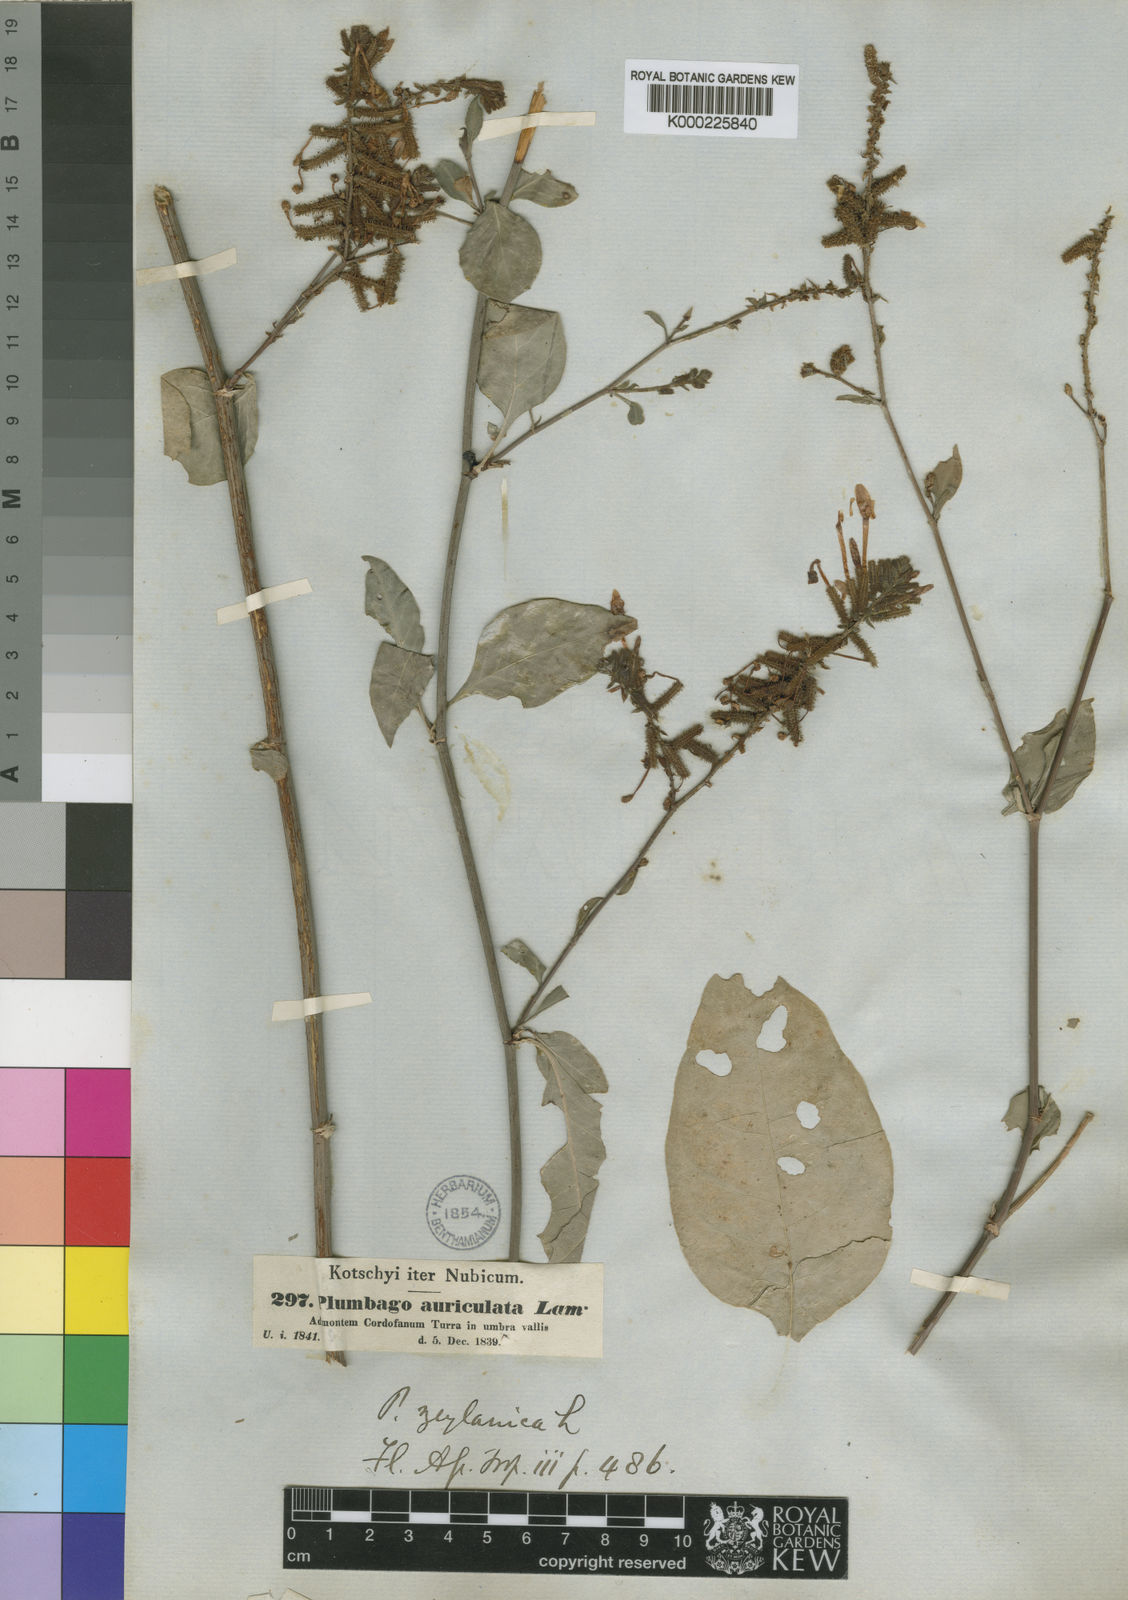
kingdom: Plantae
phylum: Tracheophyta
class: Magnoliopsida
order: Caryophyllales
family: Plumbaginaceae
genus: Plumbago
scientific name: Plumbago zeylanica
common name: Doctorbush
